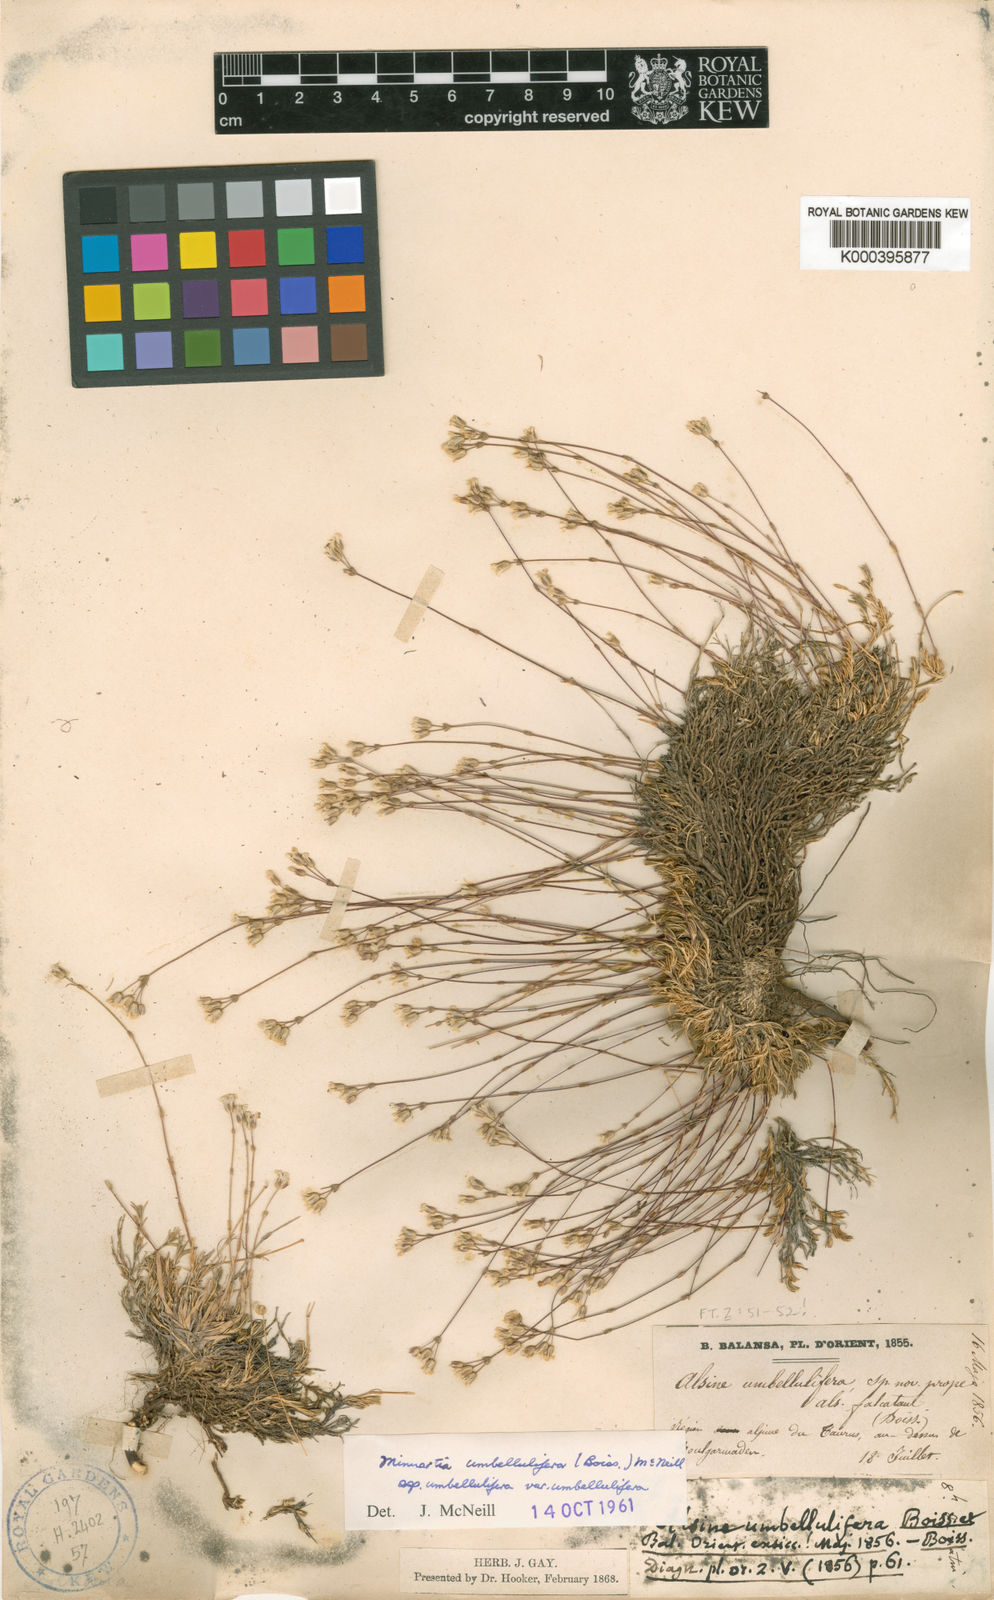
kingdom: Plantae
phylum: Tracheophyta
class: Magnoliopsida
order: Caryophyllales
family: Caryophyllaceae
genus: Sabulina
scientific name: Sabulina umbellulifera
